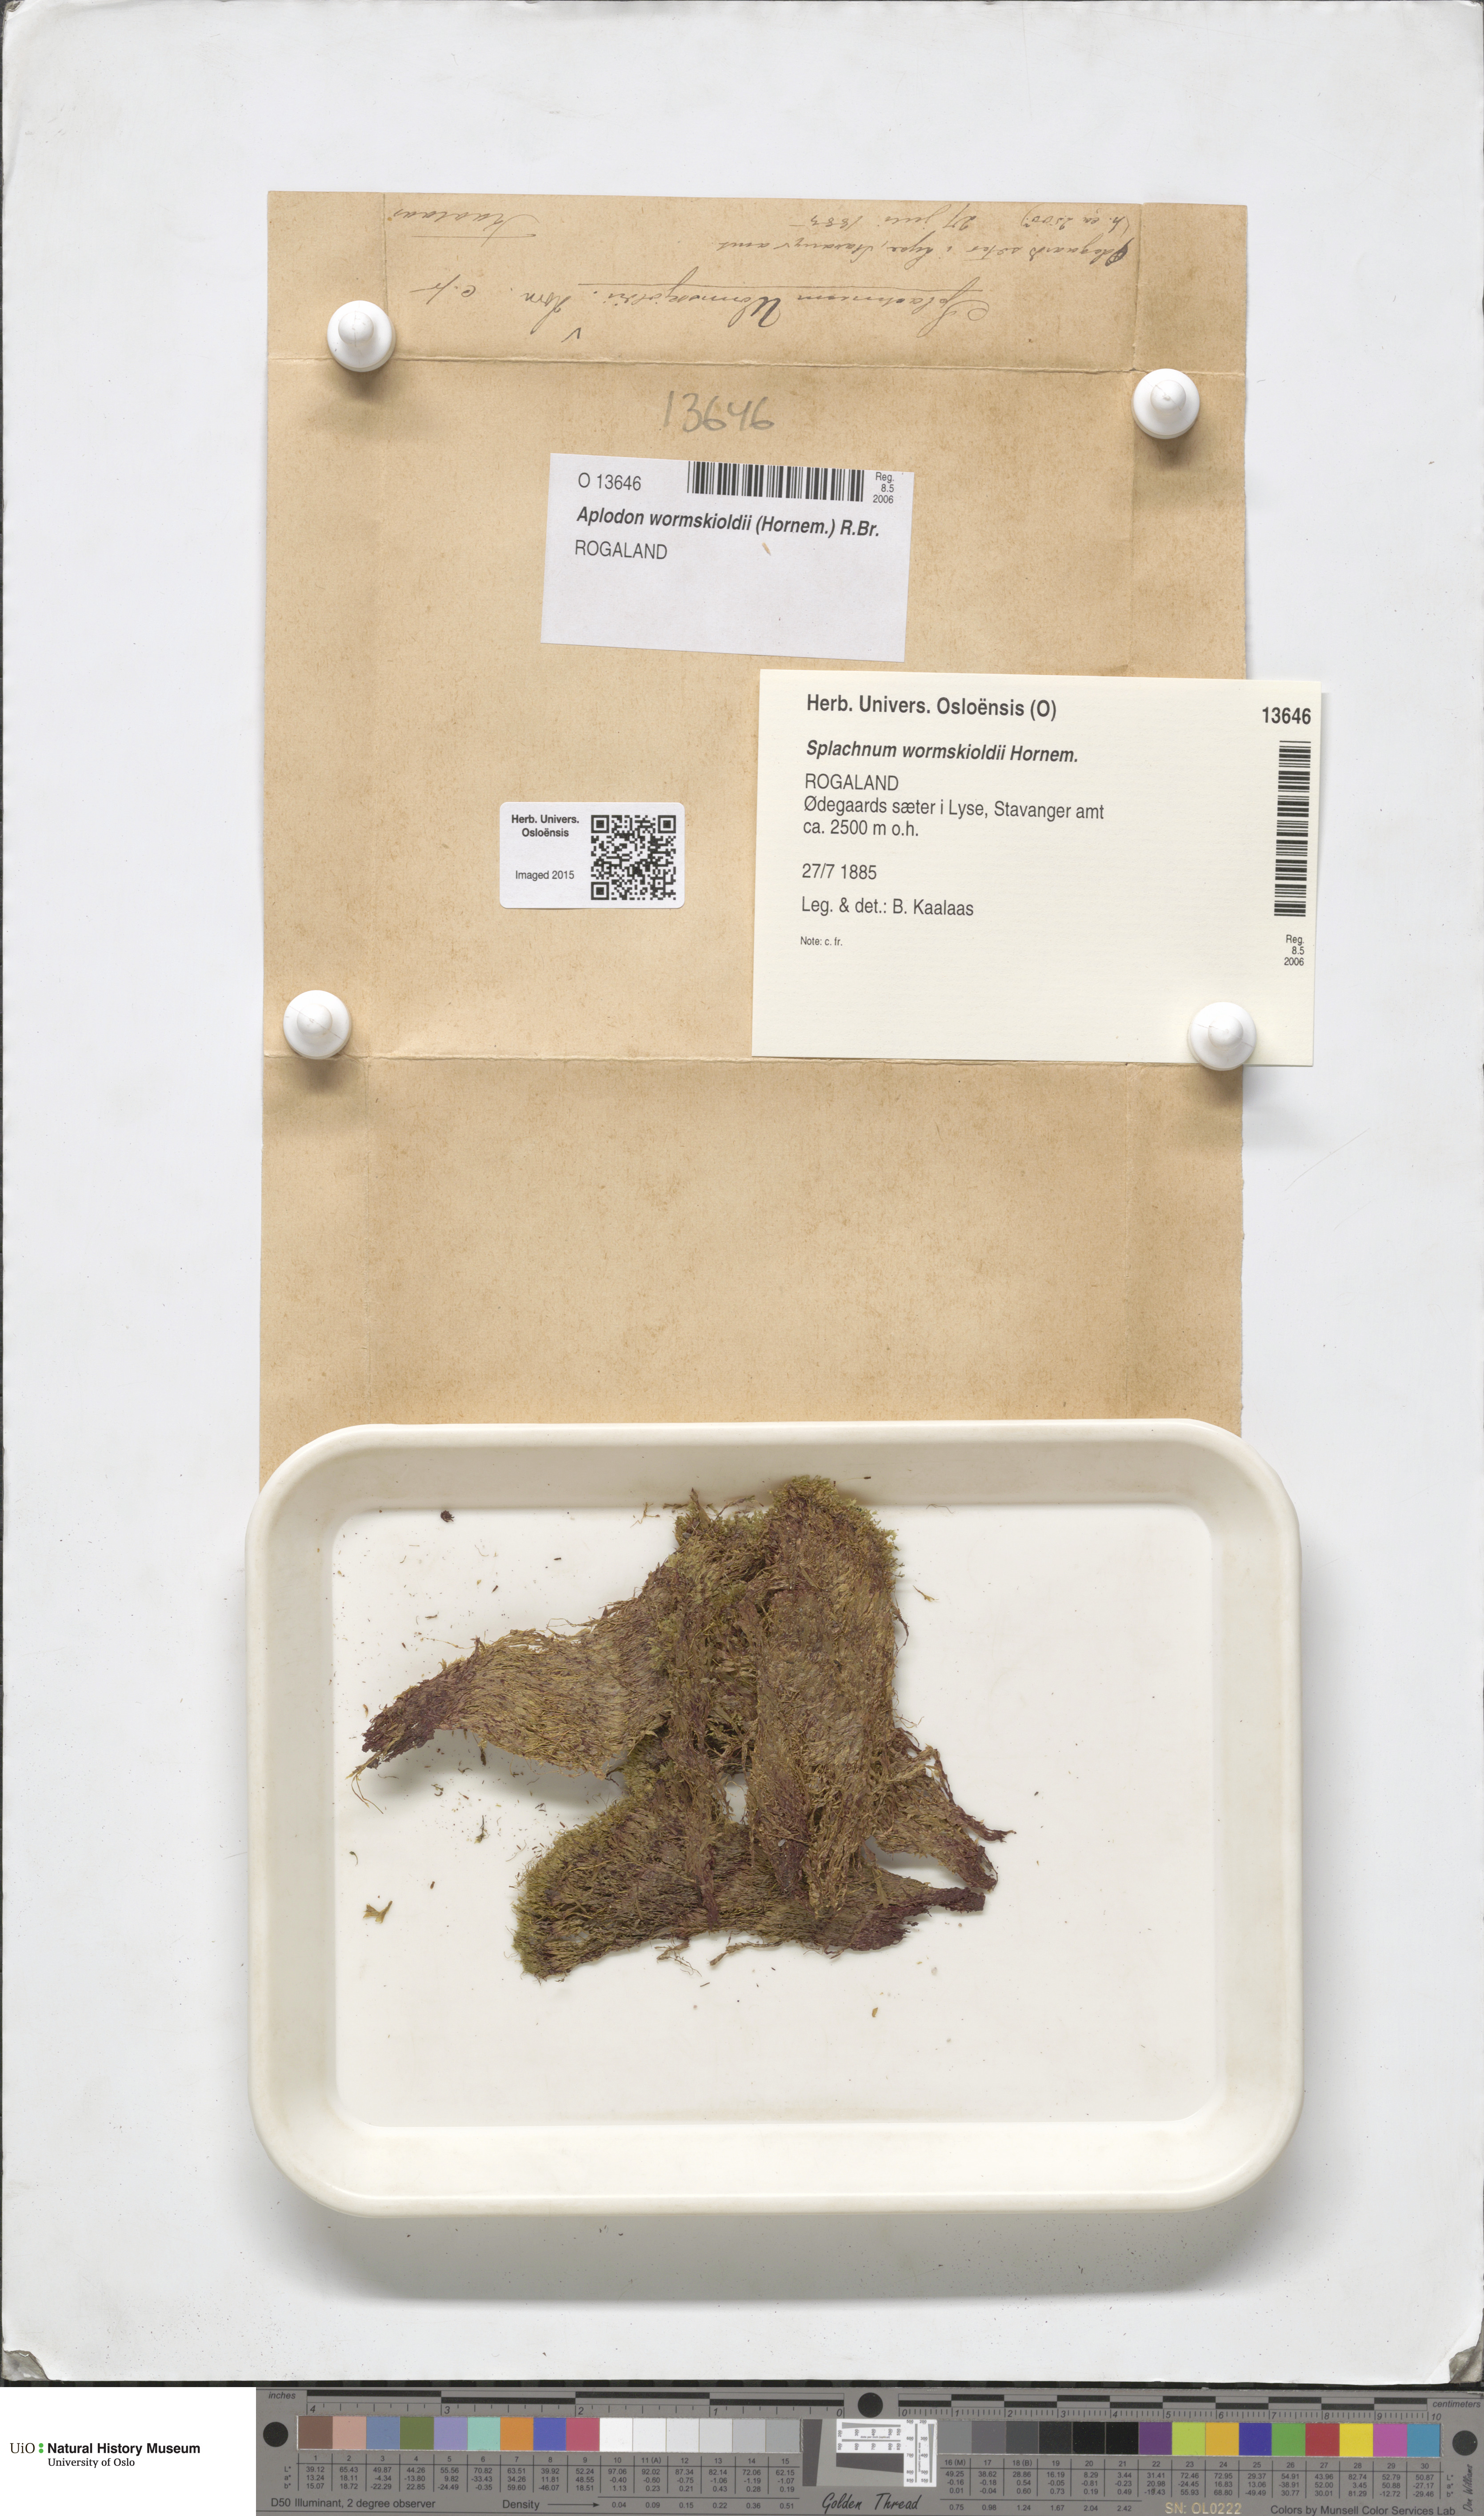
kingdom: Plantae
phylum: Bryophyta
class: Bryopsida
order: Splachnales
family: Splachnaceae
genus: Aplodon
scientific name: Aplodon wormskioldii
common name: Carrion moss
